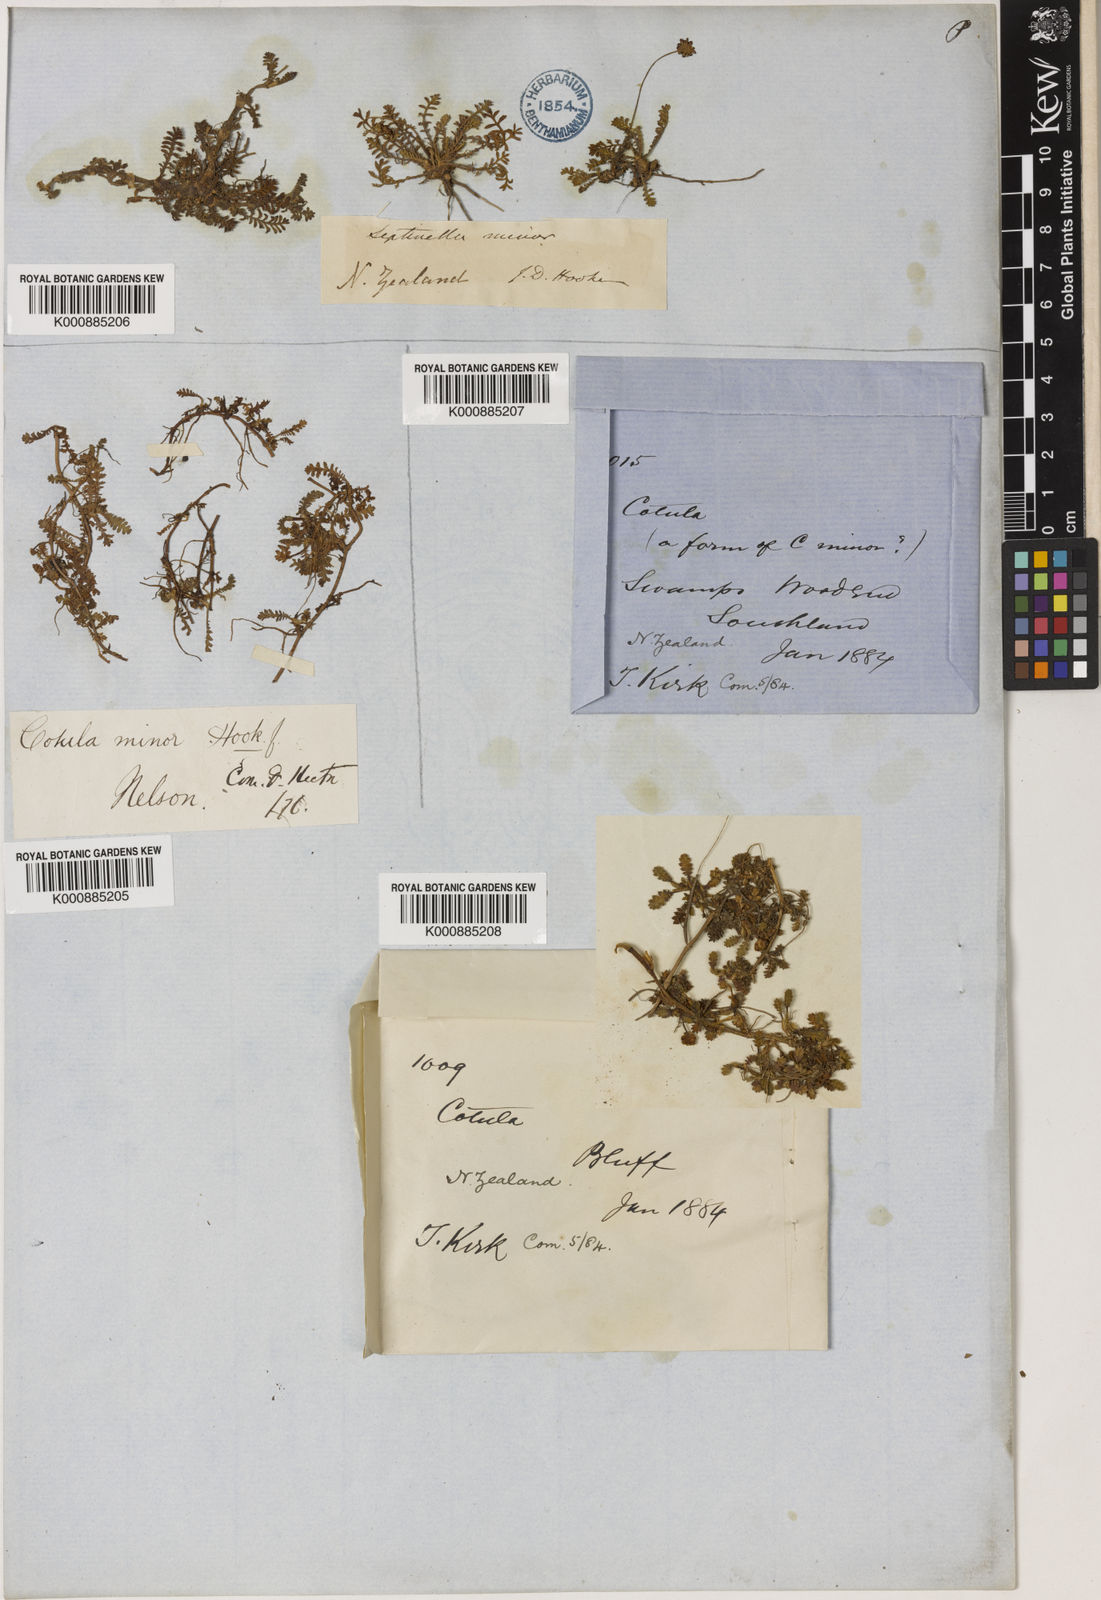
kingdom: Plantae
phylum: Tracheophyta
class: Magnoliopsida
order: Asterales
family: Asteraceae
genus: Leptinella
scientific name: Leptinella minor
